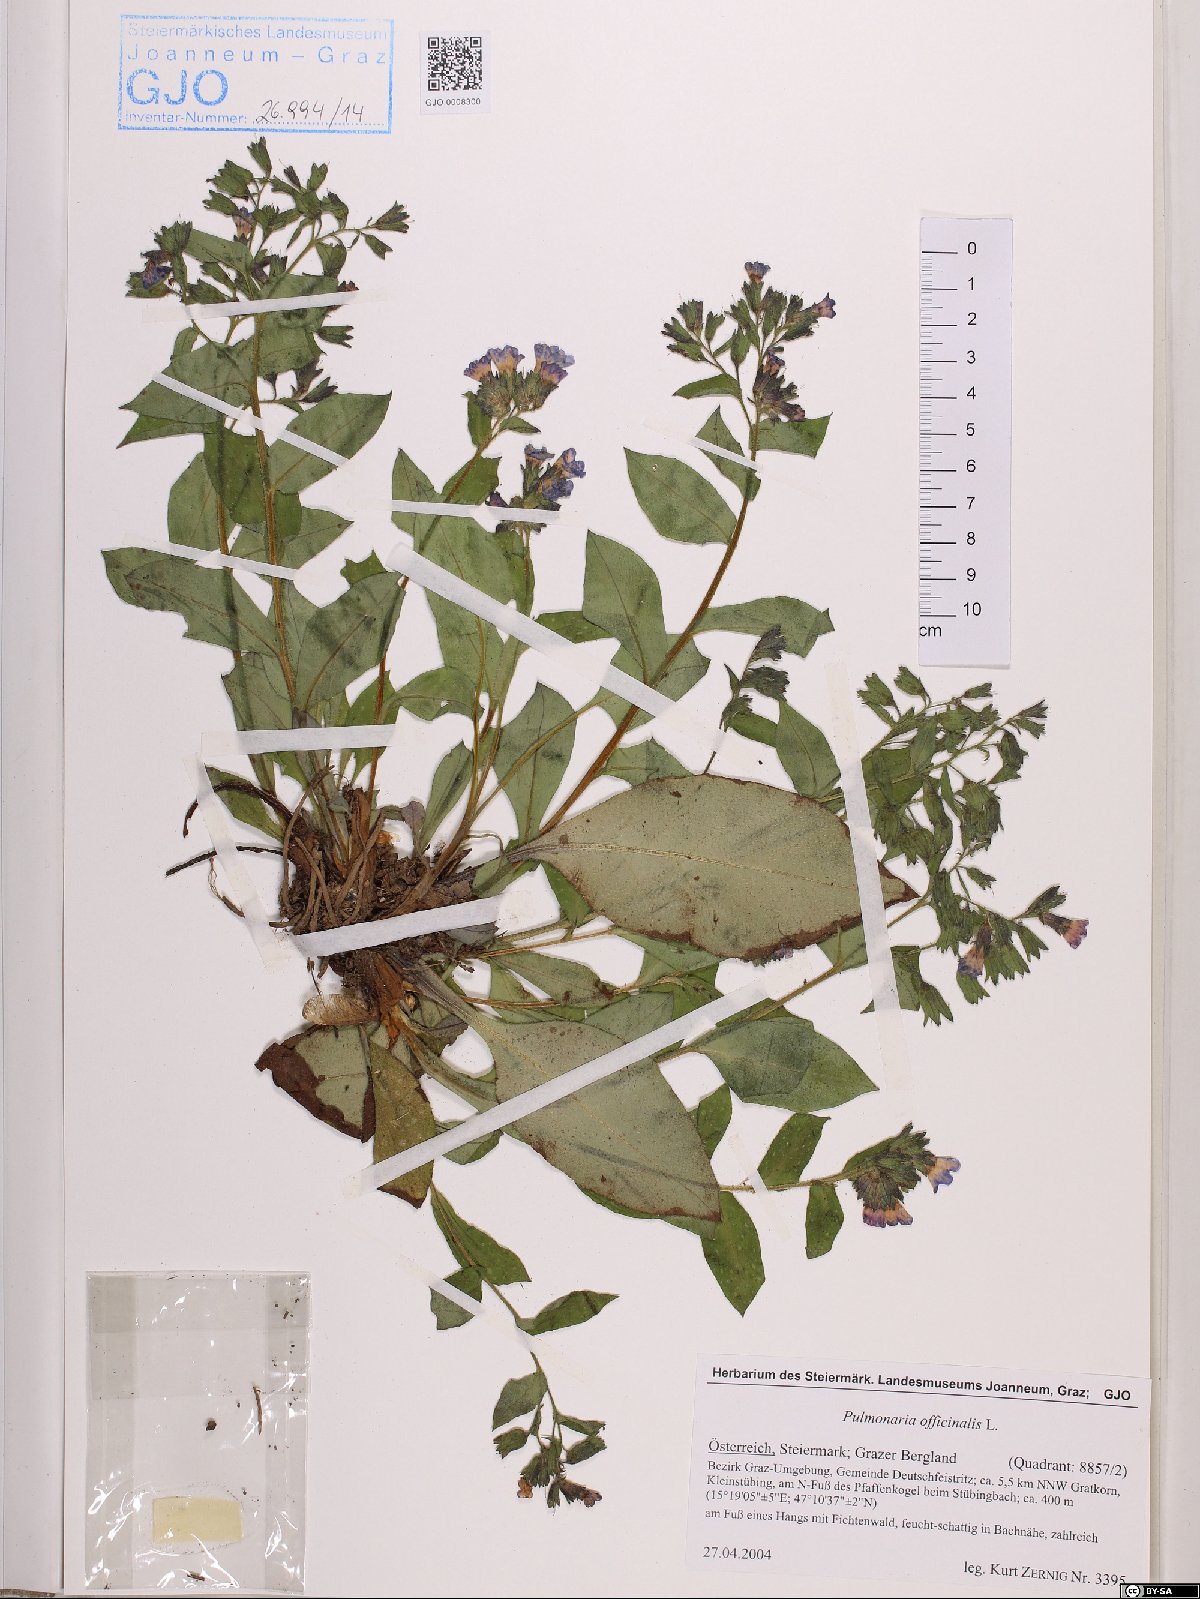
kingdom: Plantae
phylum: Tracheophyta
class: Magnoliopsida
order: Boraginales
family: Boraginaceae
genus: Pulmonaria
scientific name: Pulmonaria officinalis
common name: Lungwort
